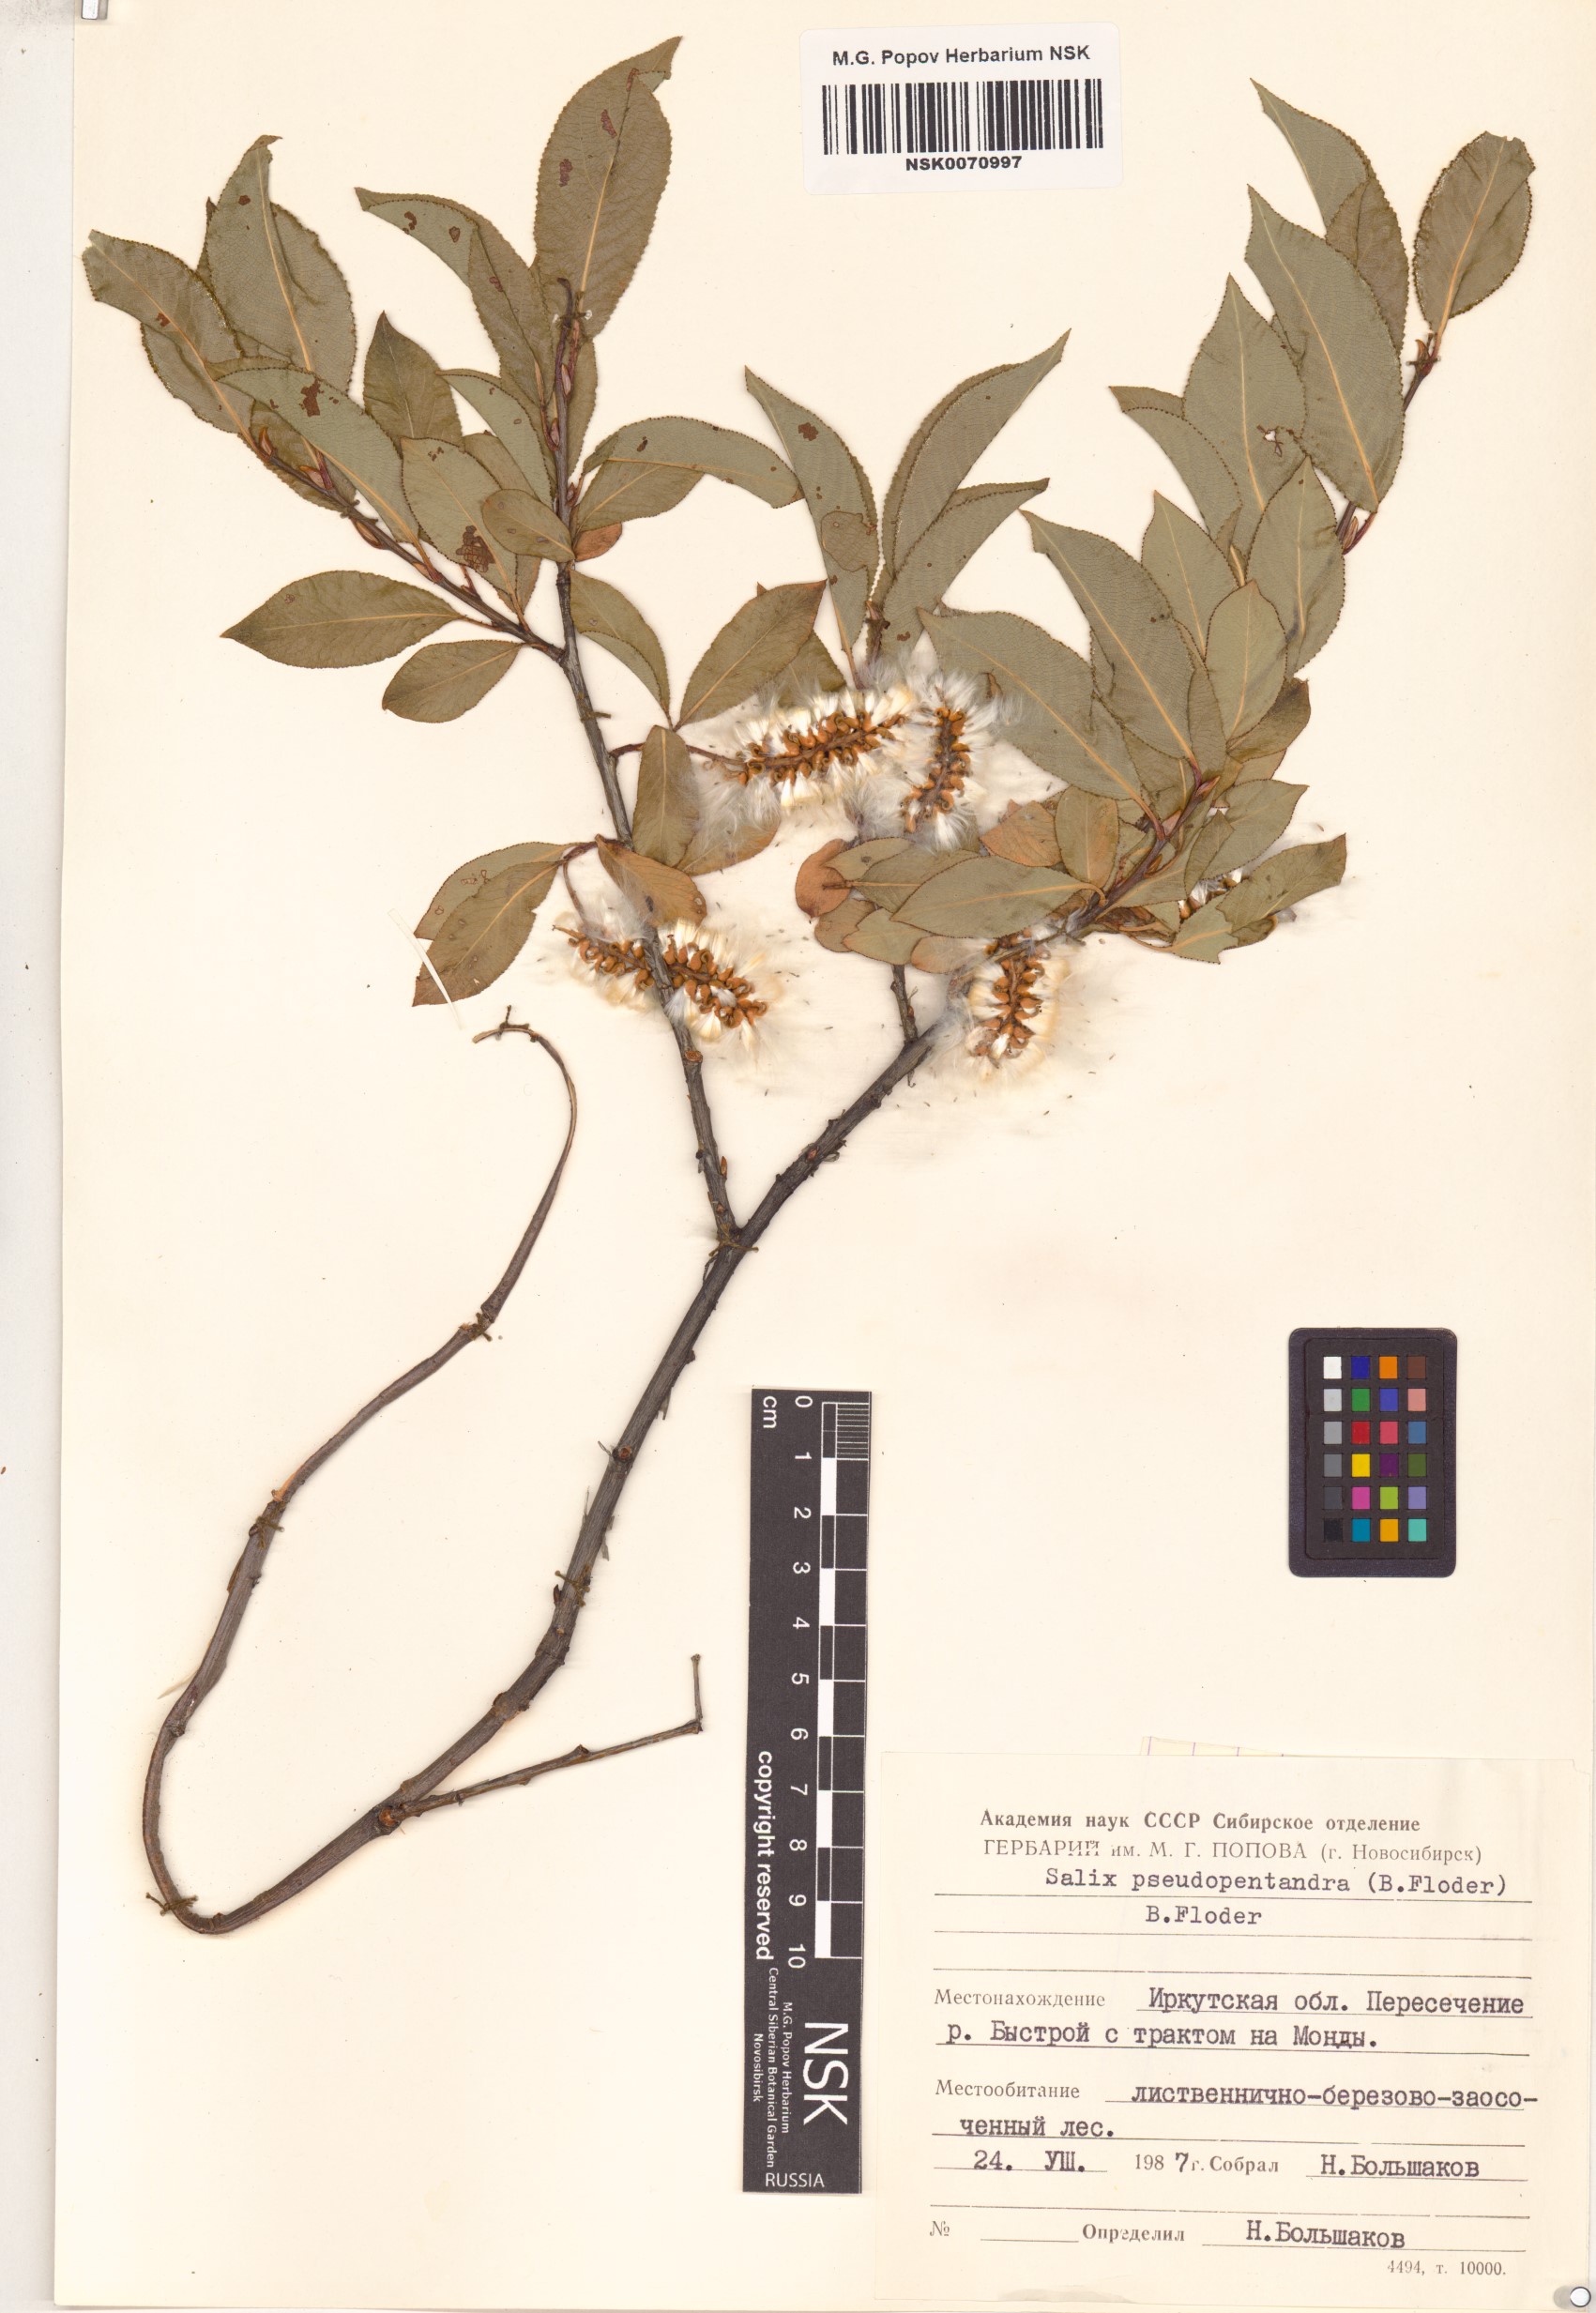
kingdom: Plantae
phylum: Tracheophyta
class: Magnoliopsida
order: Malpighiales
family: Salicaceae
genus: Salix
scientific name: Salix pseudopentandra
